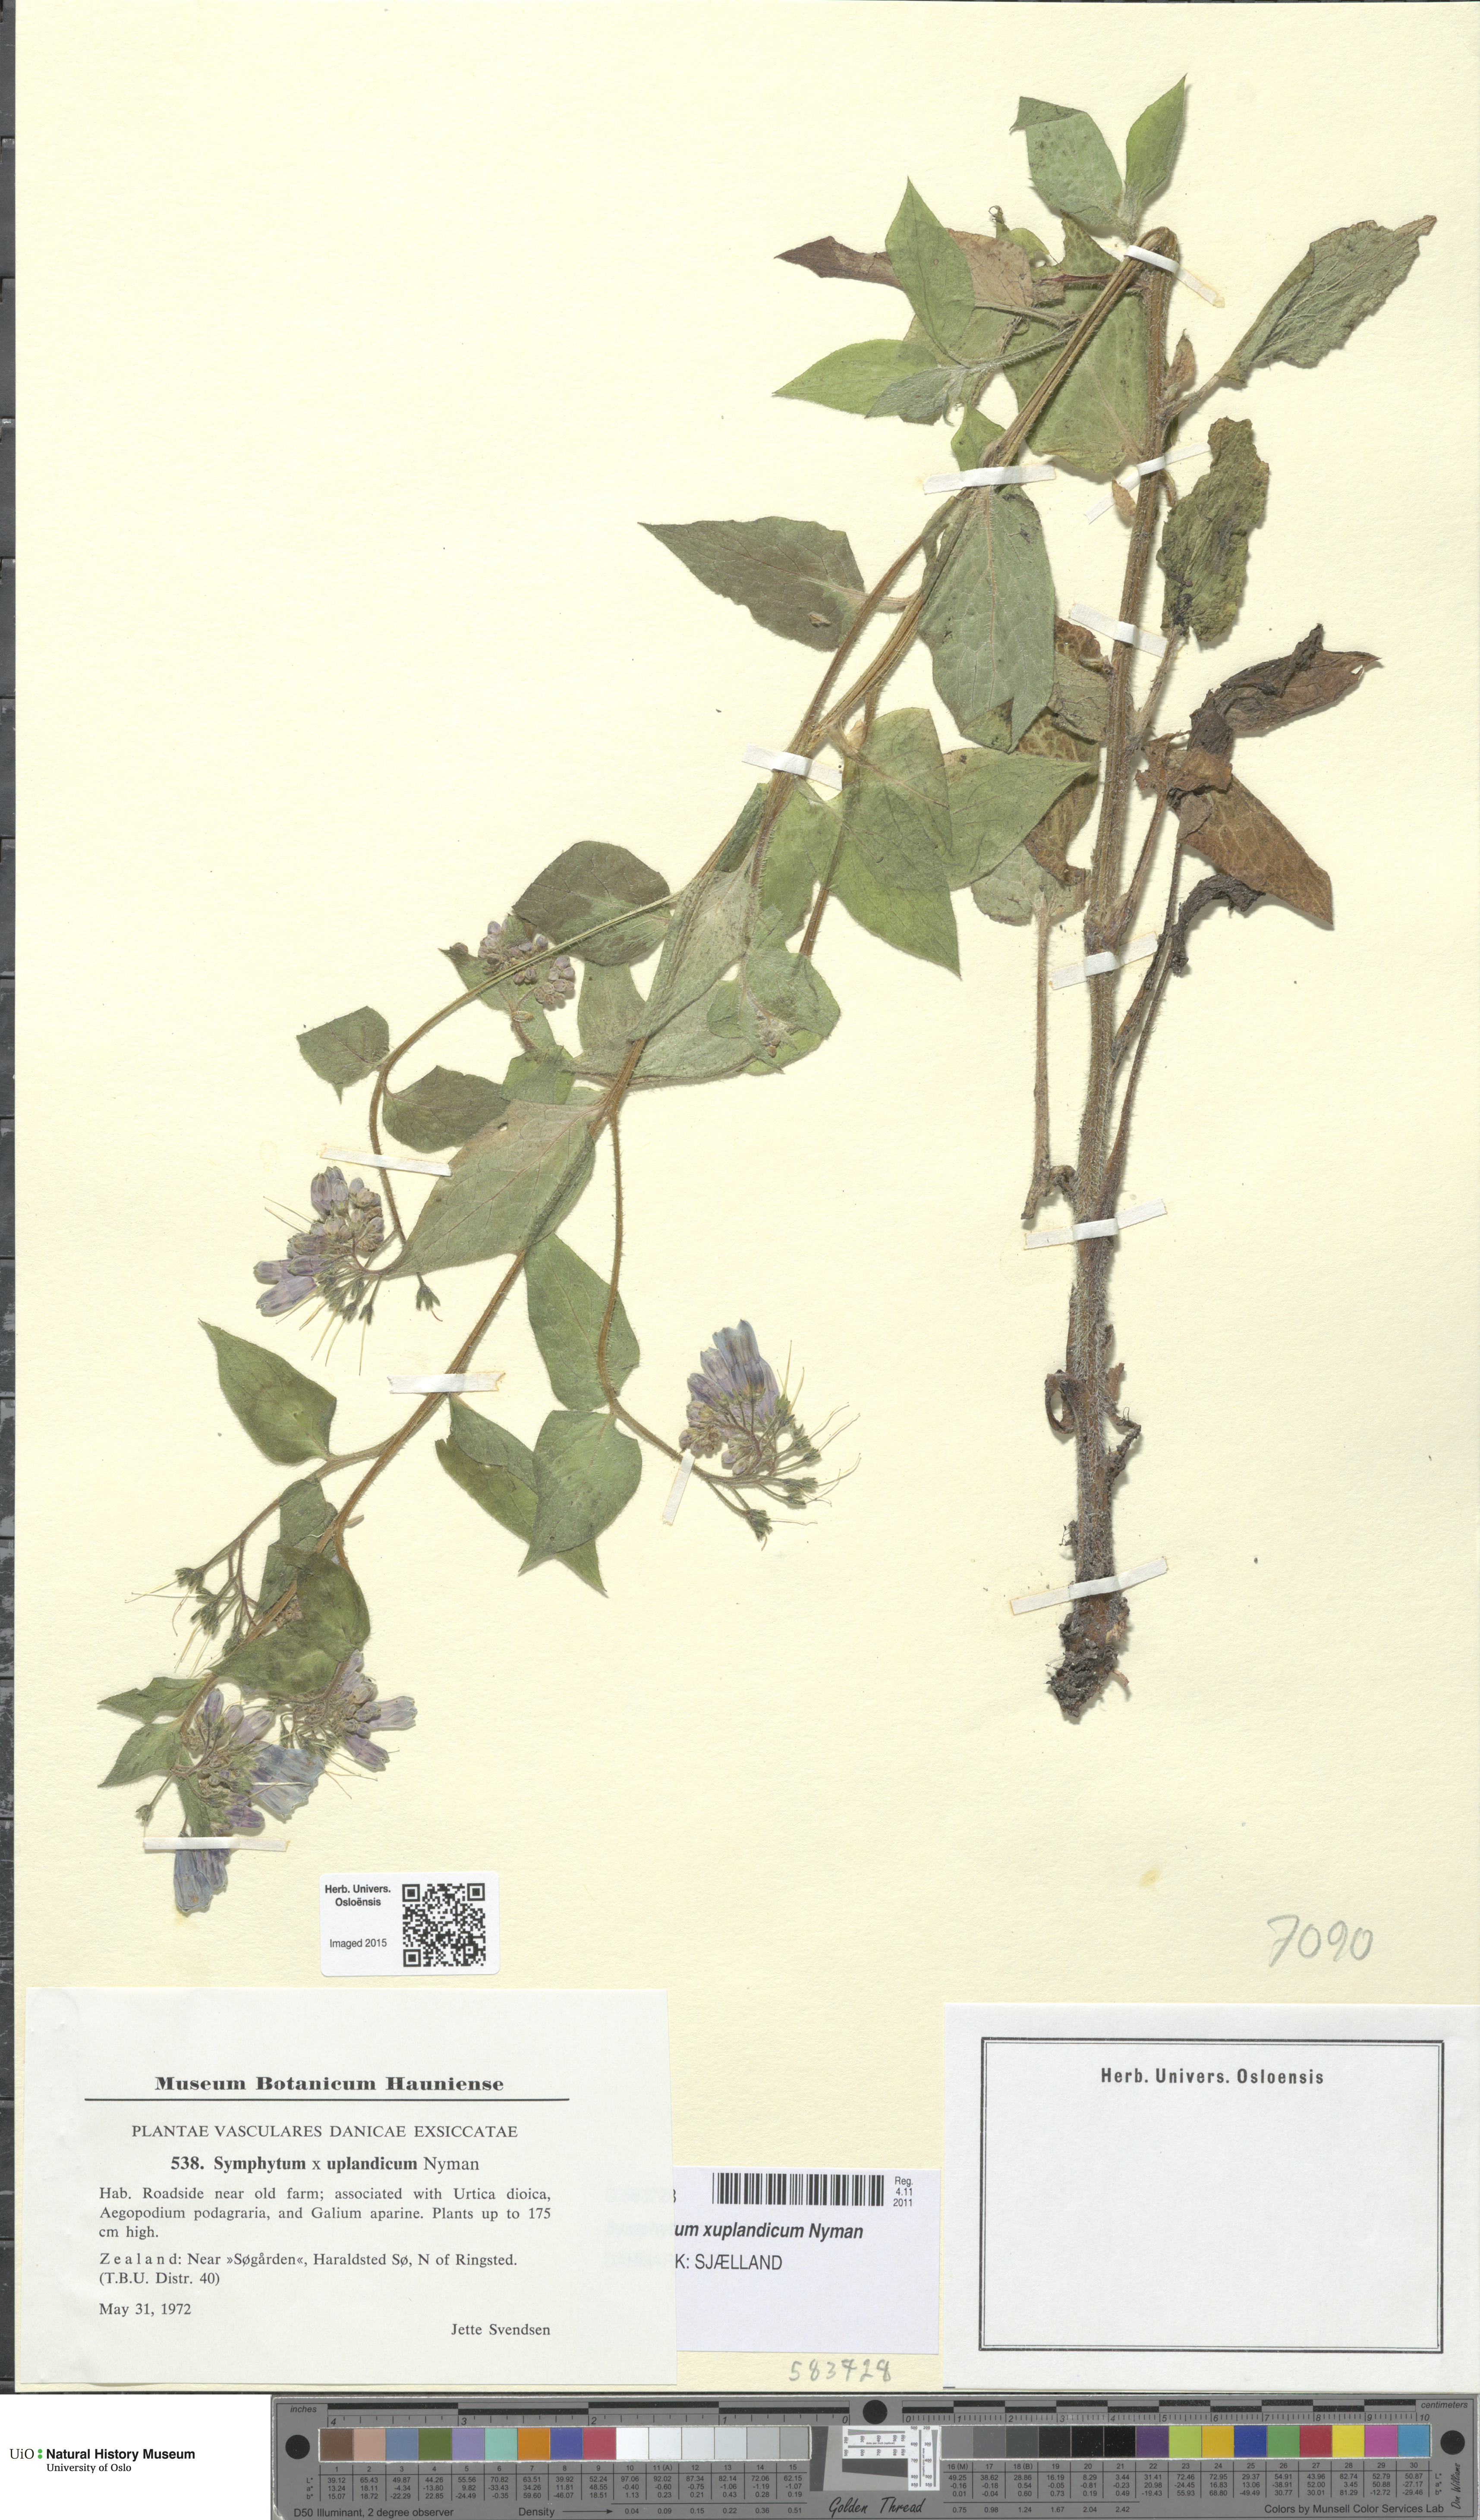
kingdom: Plantae
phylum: Tracheophyta
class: Magnoliopsida
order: Boraginales
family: Boraginaceae
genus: Symphytum
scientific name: Symphytum uplandicum
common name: Russian comfrey
